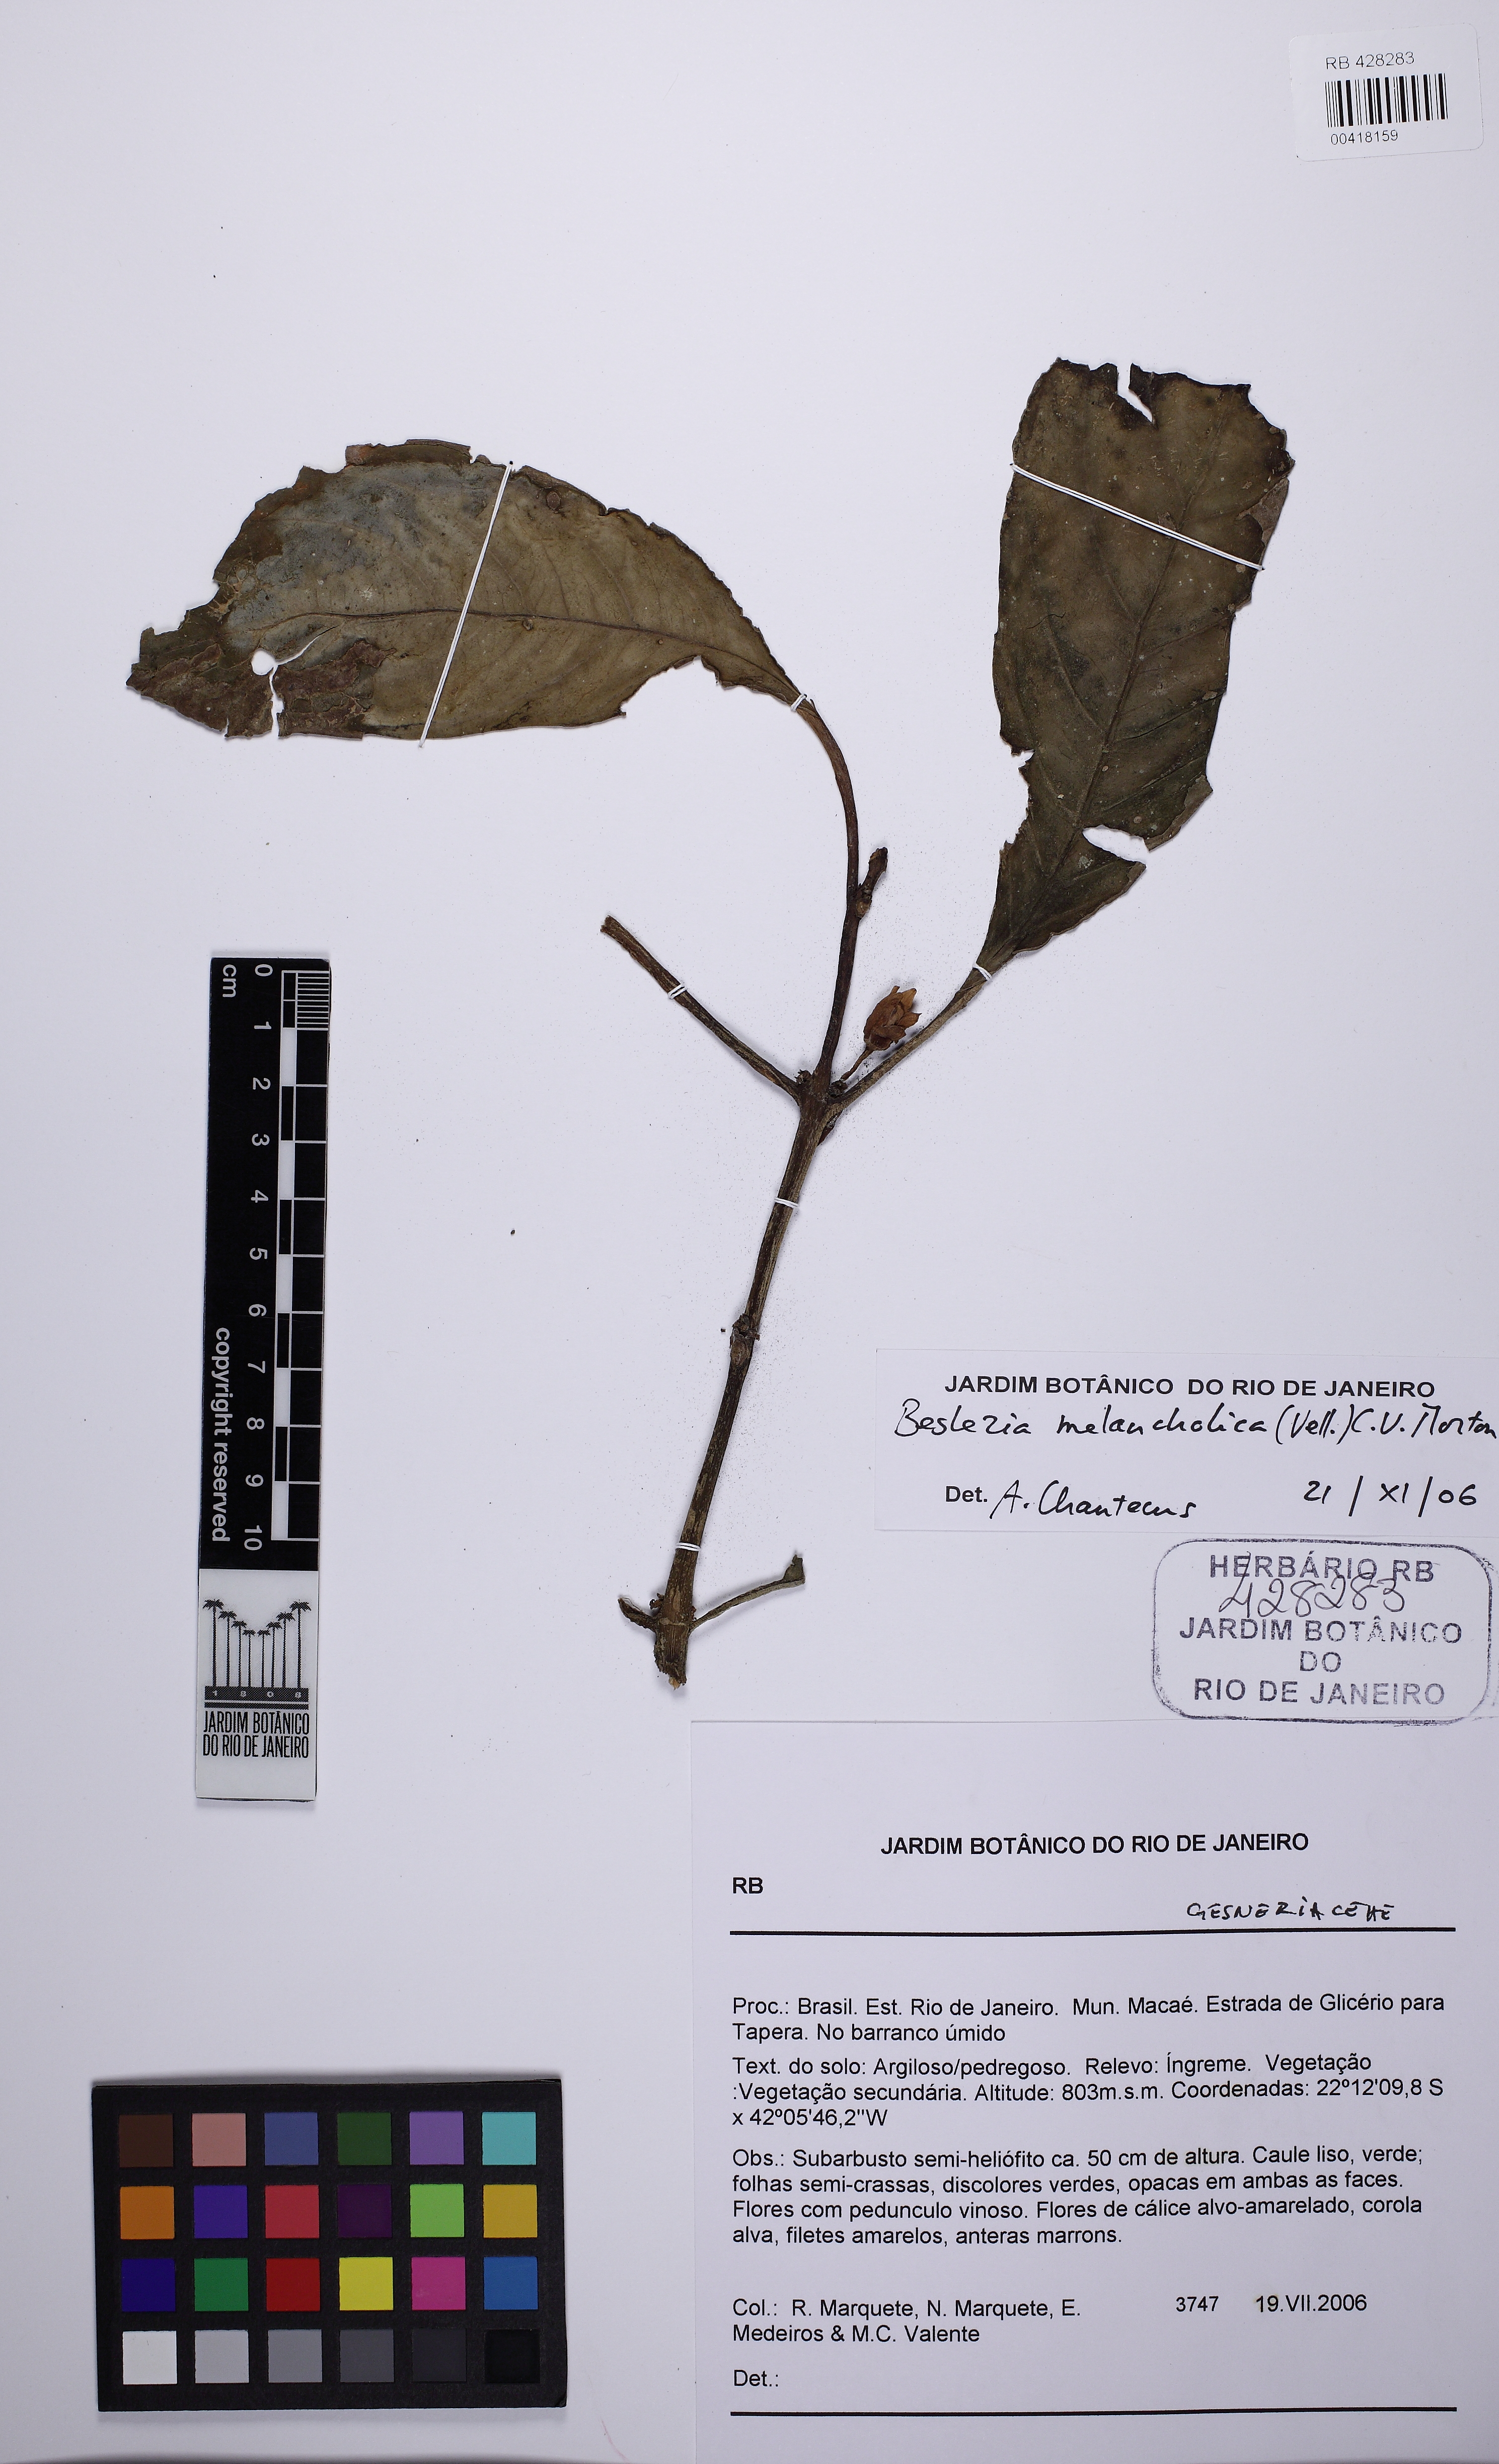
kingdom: Plantae
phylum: Tracheophyta
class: Magnoliopsida
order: Lamiales
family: Gesneriaceae
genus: Besleria
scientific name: Besleria melancholica
